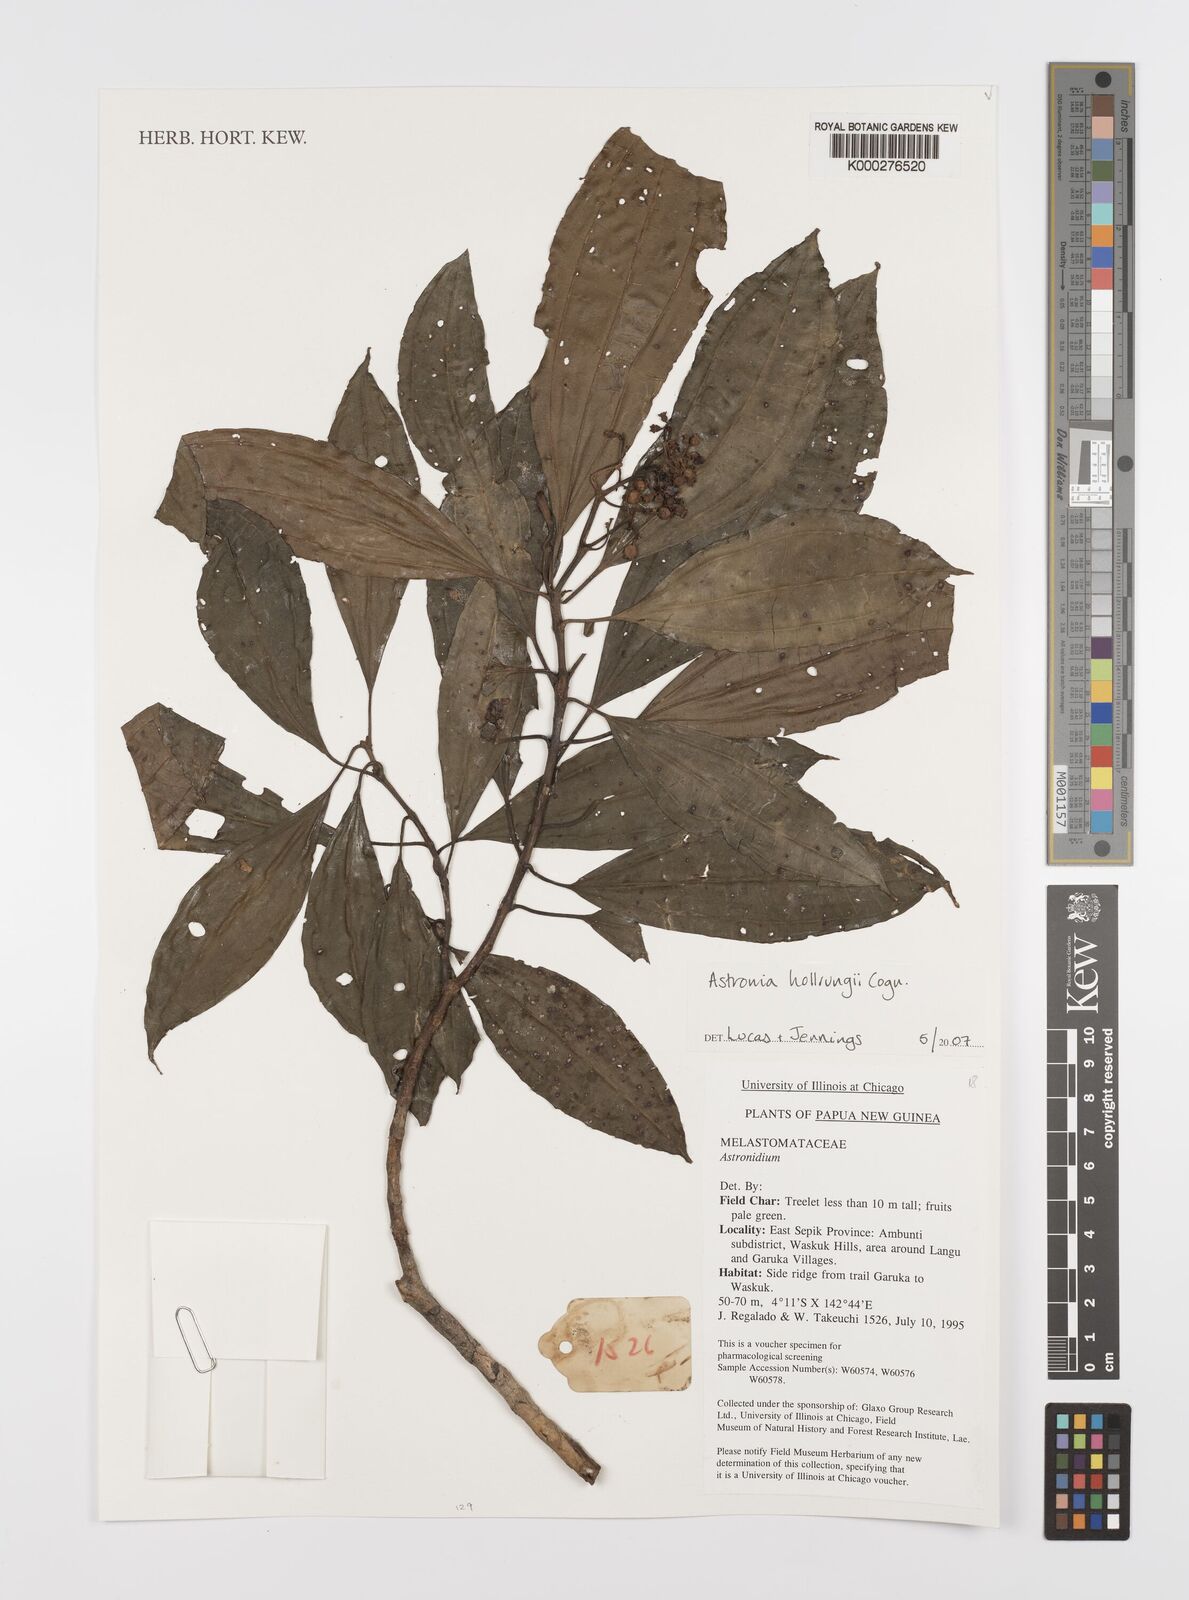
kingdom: Plantae
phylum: Tracheophyta
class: Magnoliopsida
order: Myrtales
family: Melastomataceae
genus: Astronia
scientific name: Astronia hollrungii
